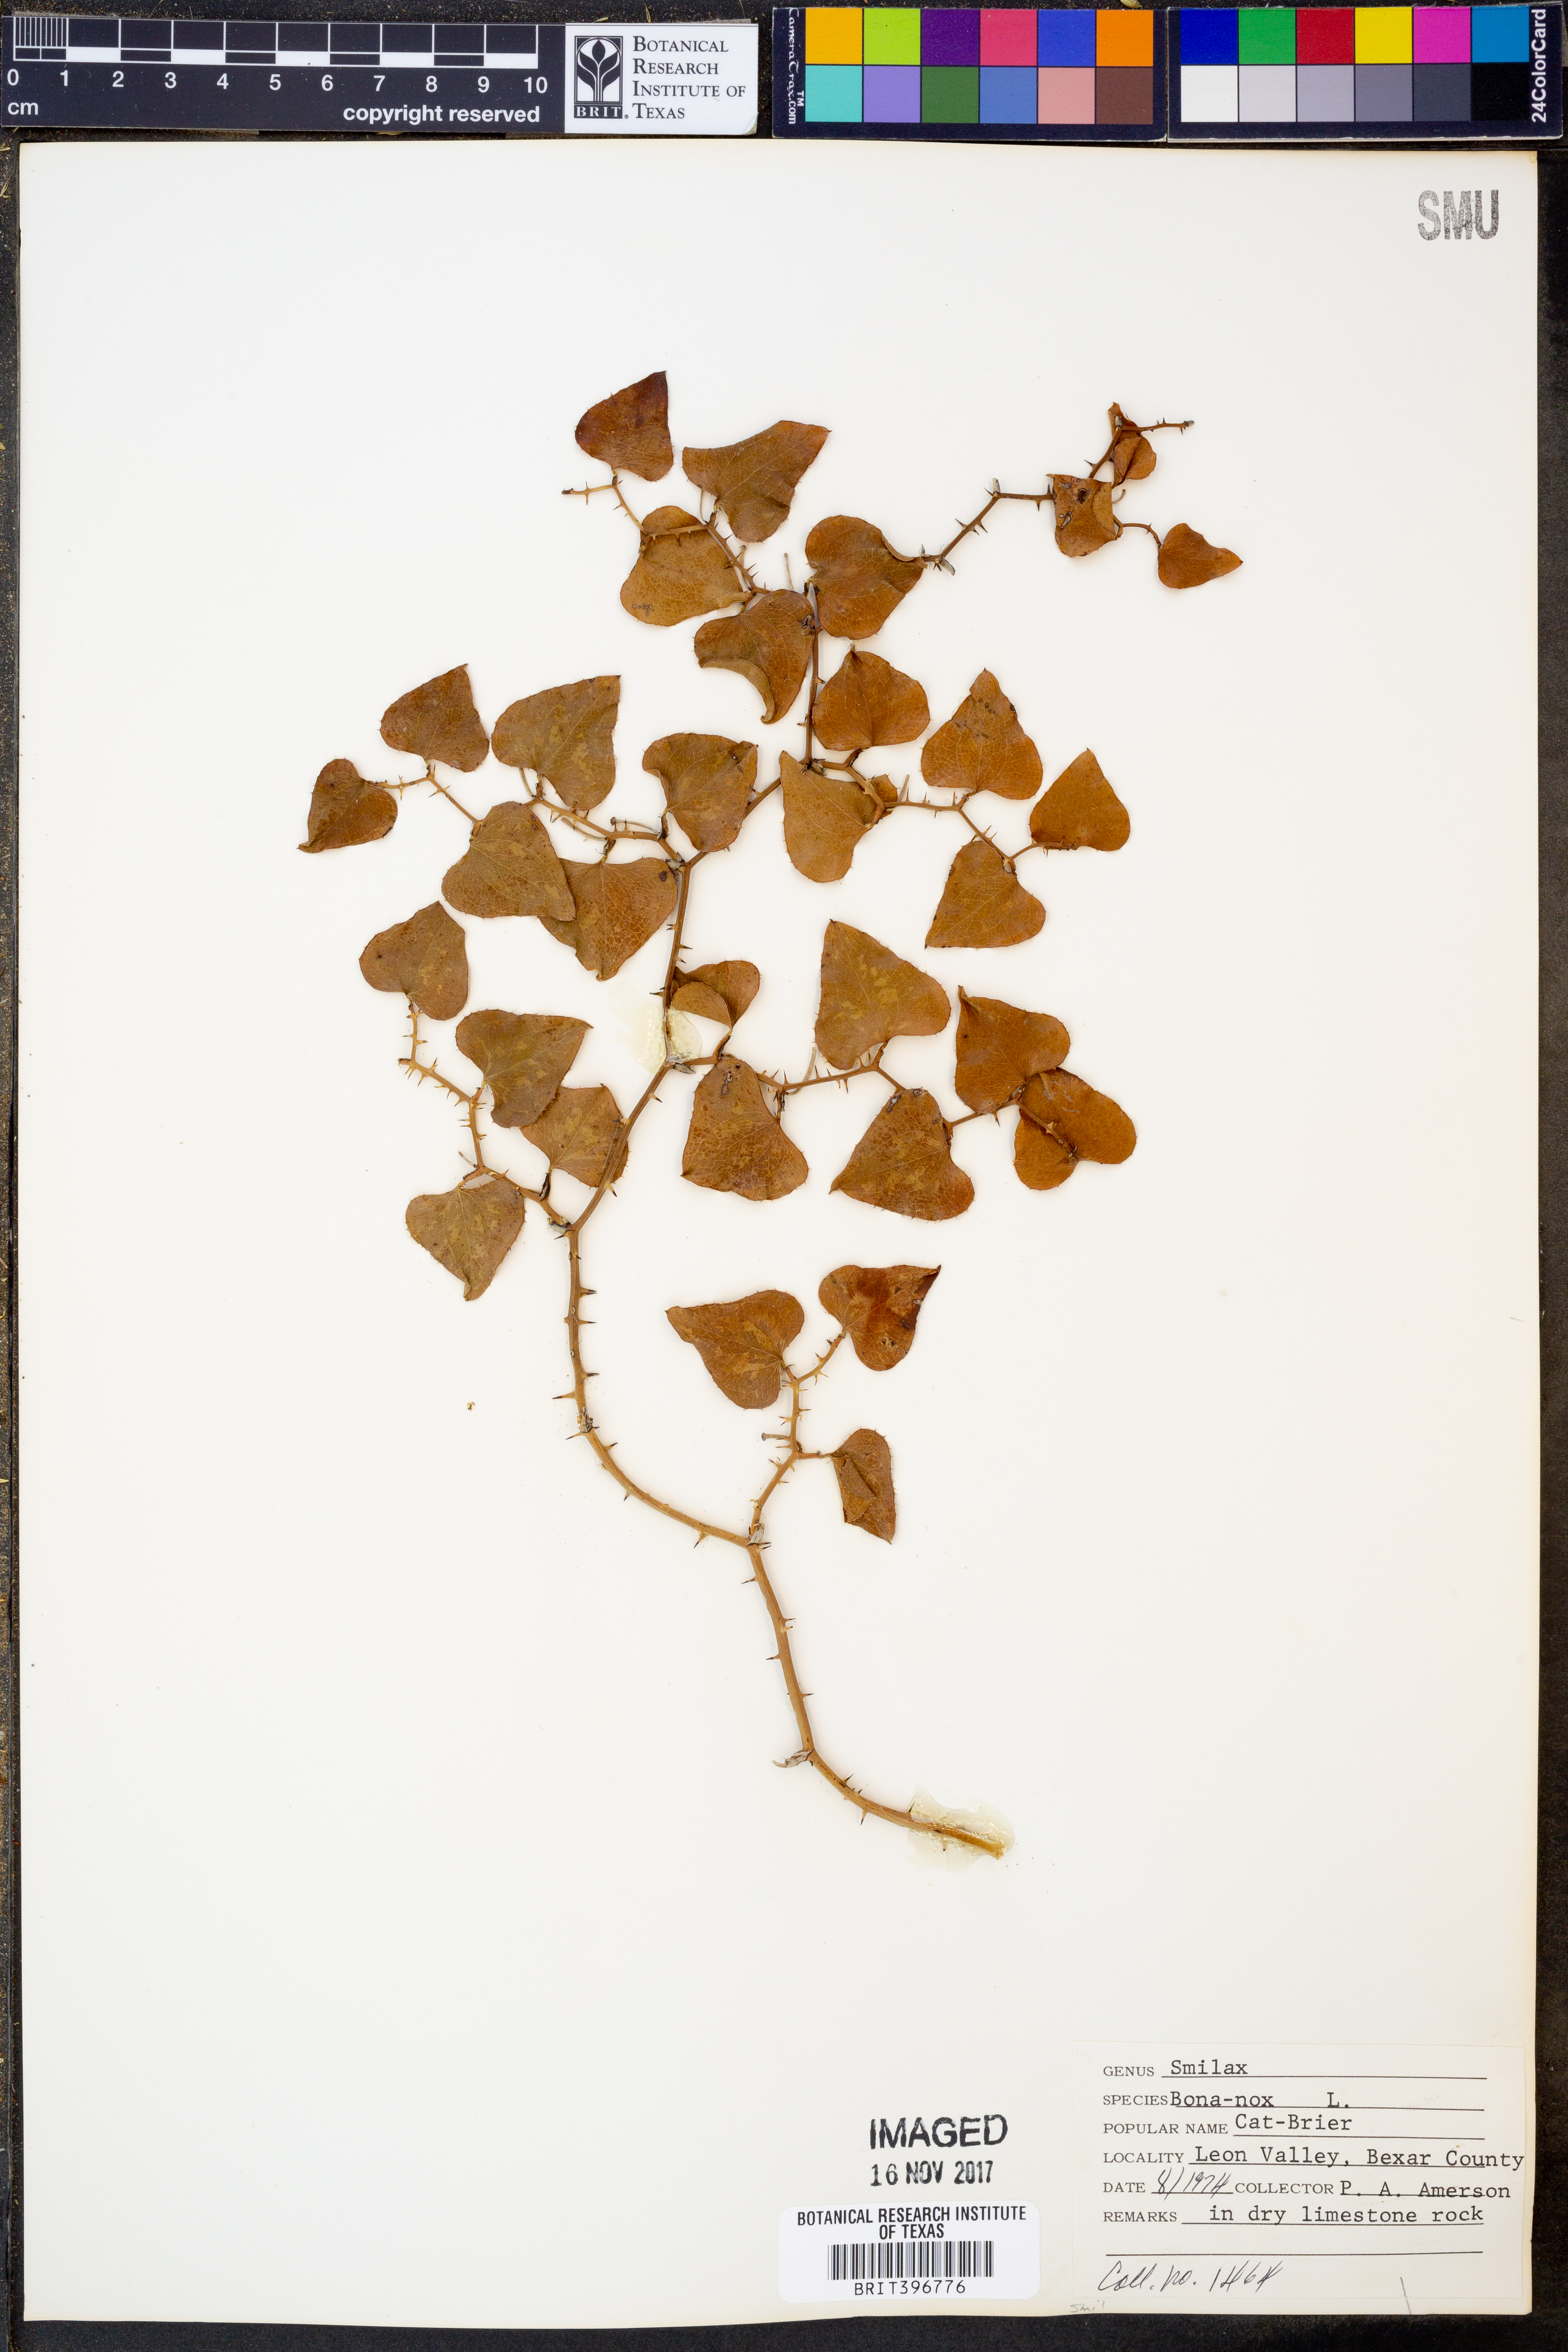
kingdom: Plantae
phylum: Tracheophyta
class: Liliopsida
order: Liliales
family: Smilacaceae
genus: Smilax
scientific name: Smilax bona-nox
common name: Catbrier
